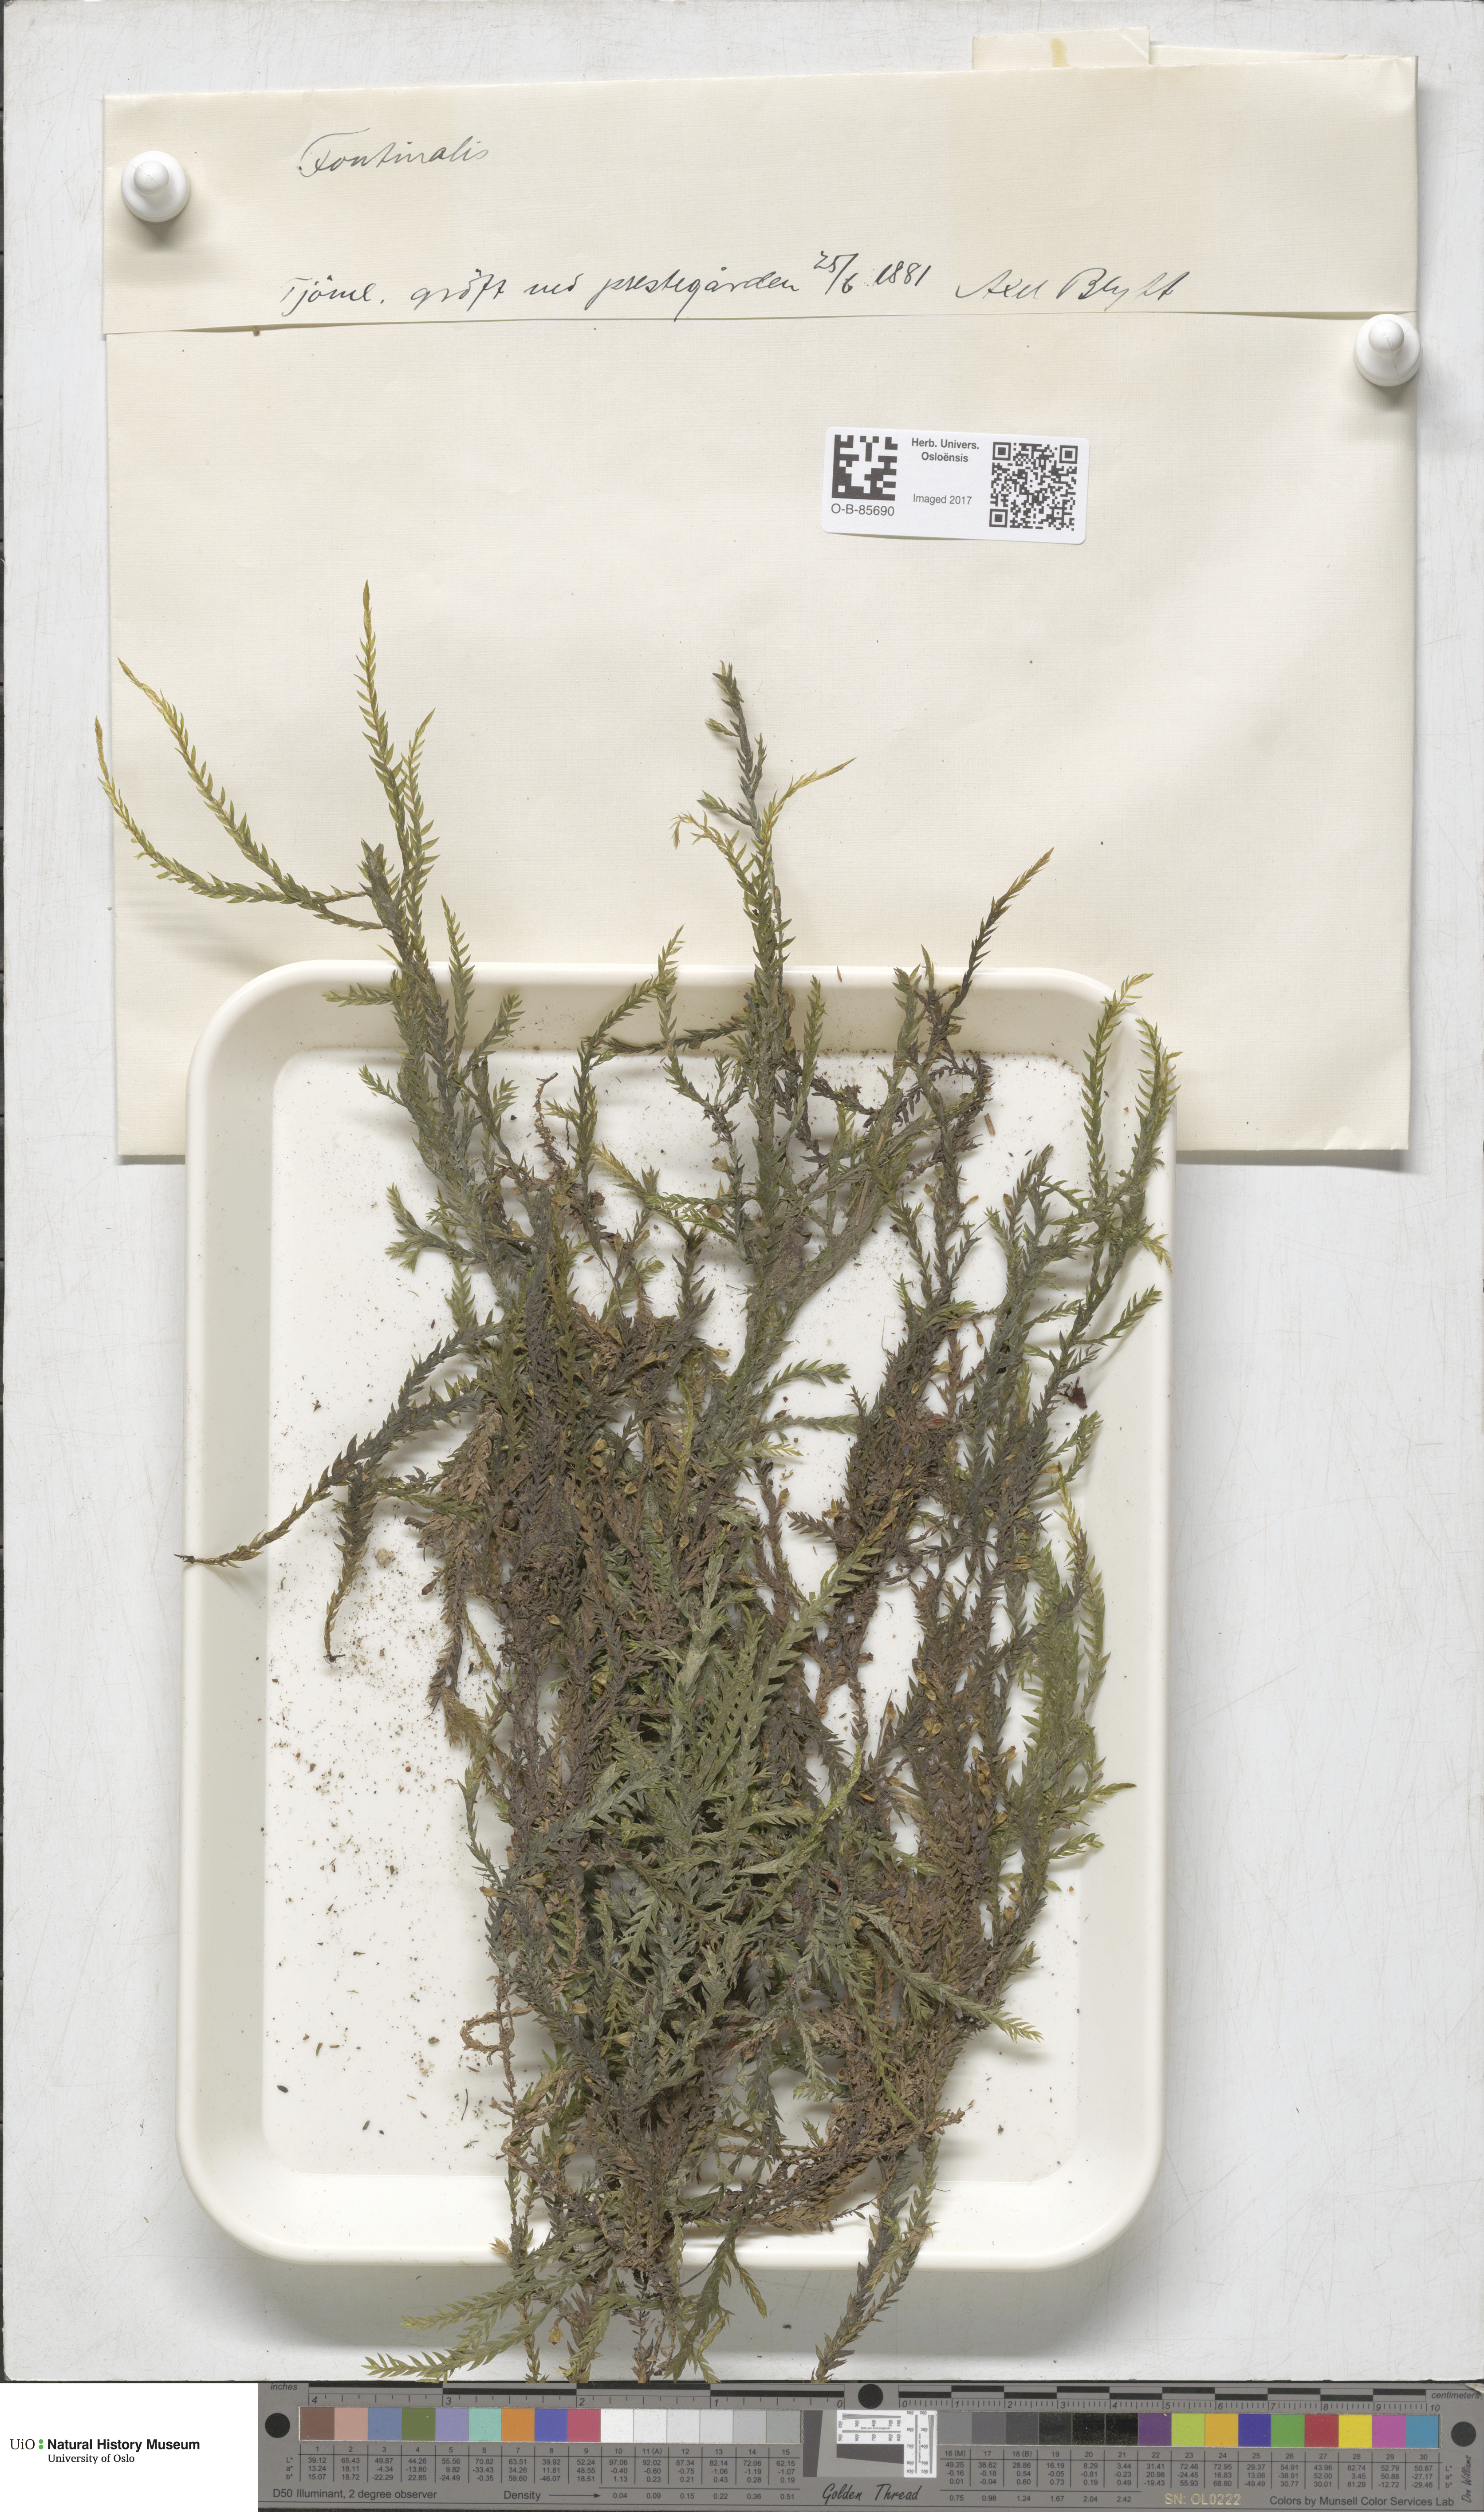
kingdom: Plantae
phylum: Bryophyta
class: Bryopsida
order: Hypnales
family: Fontinalaceae
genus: Fontinalis
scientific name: Fontinalis
